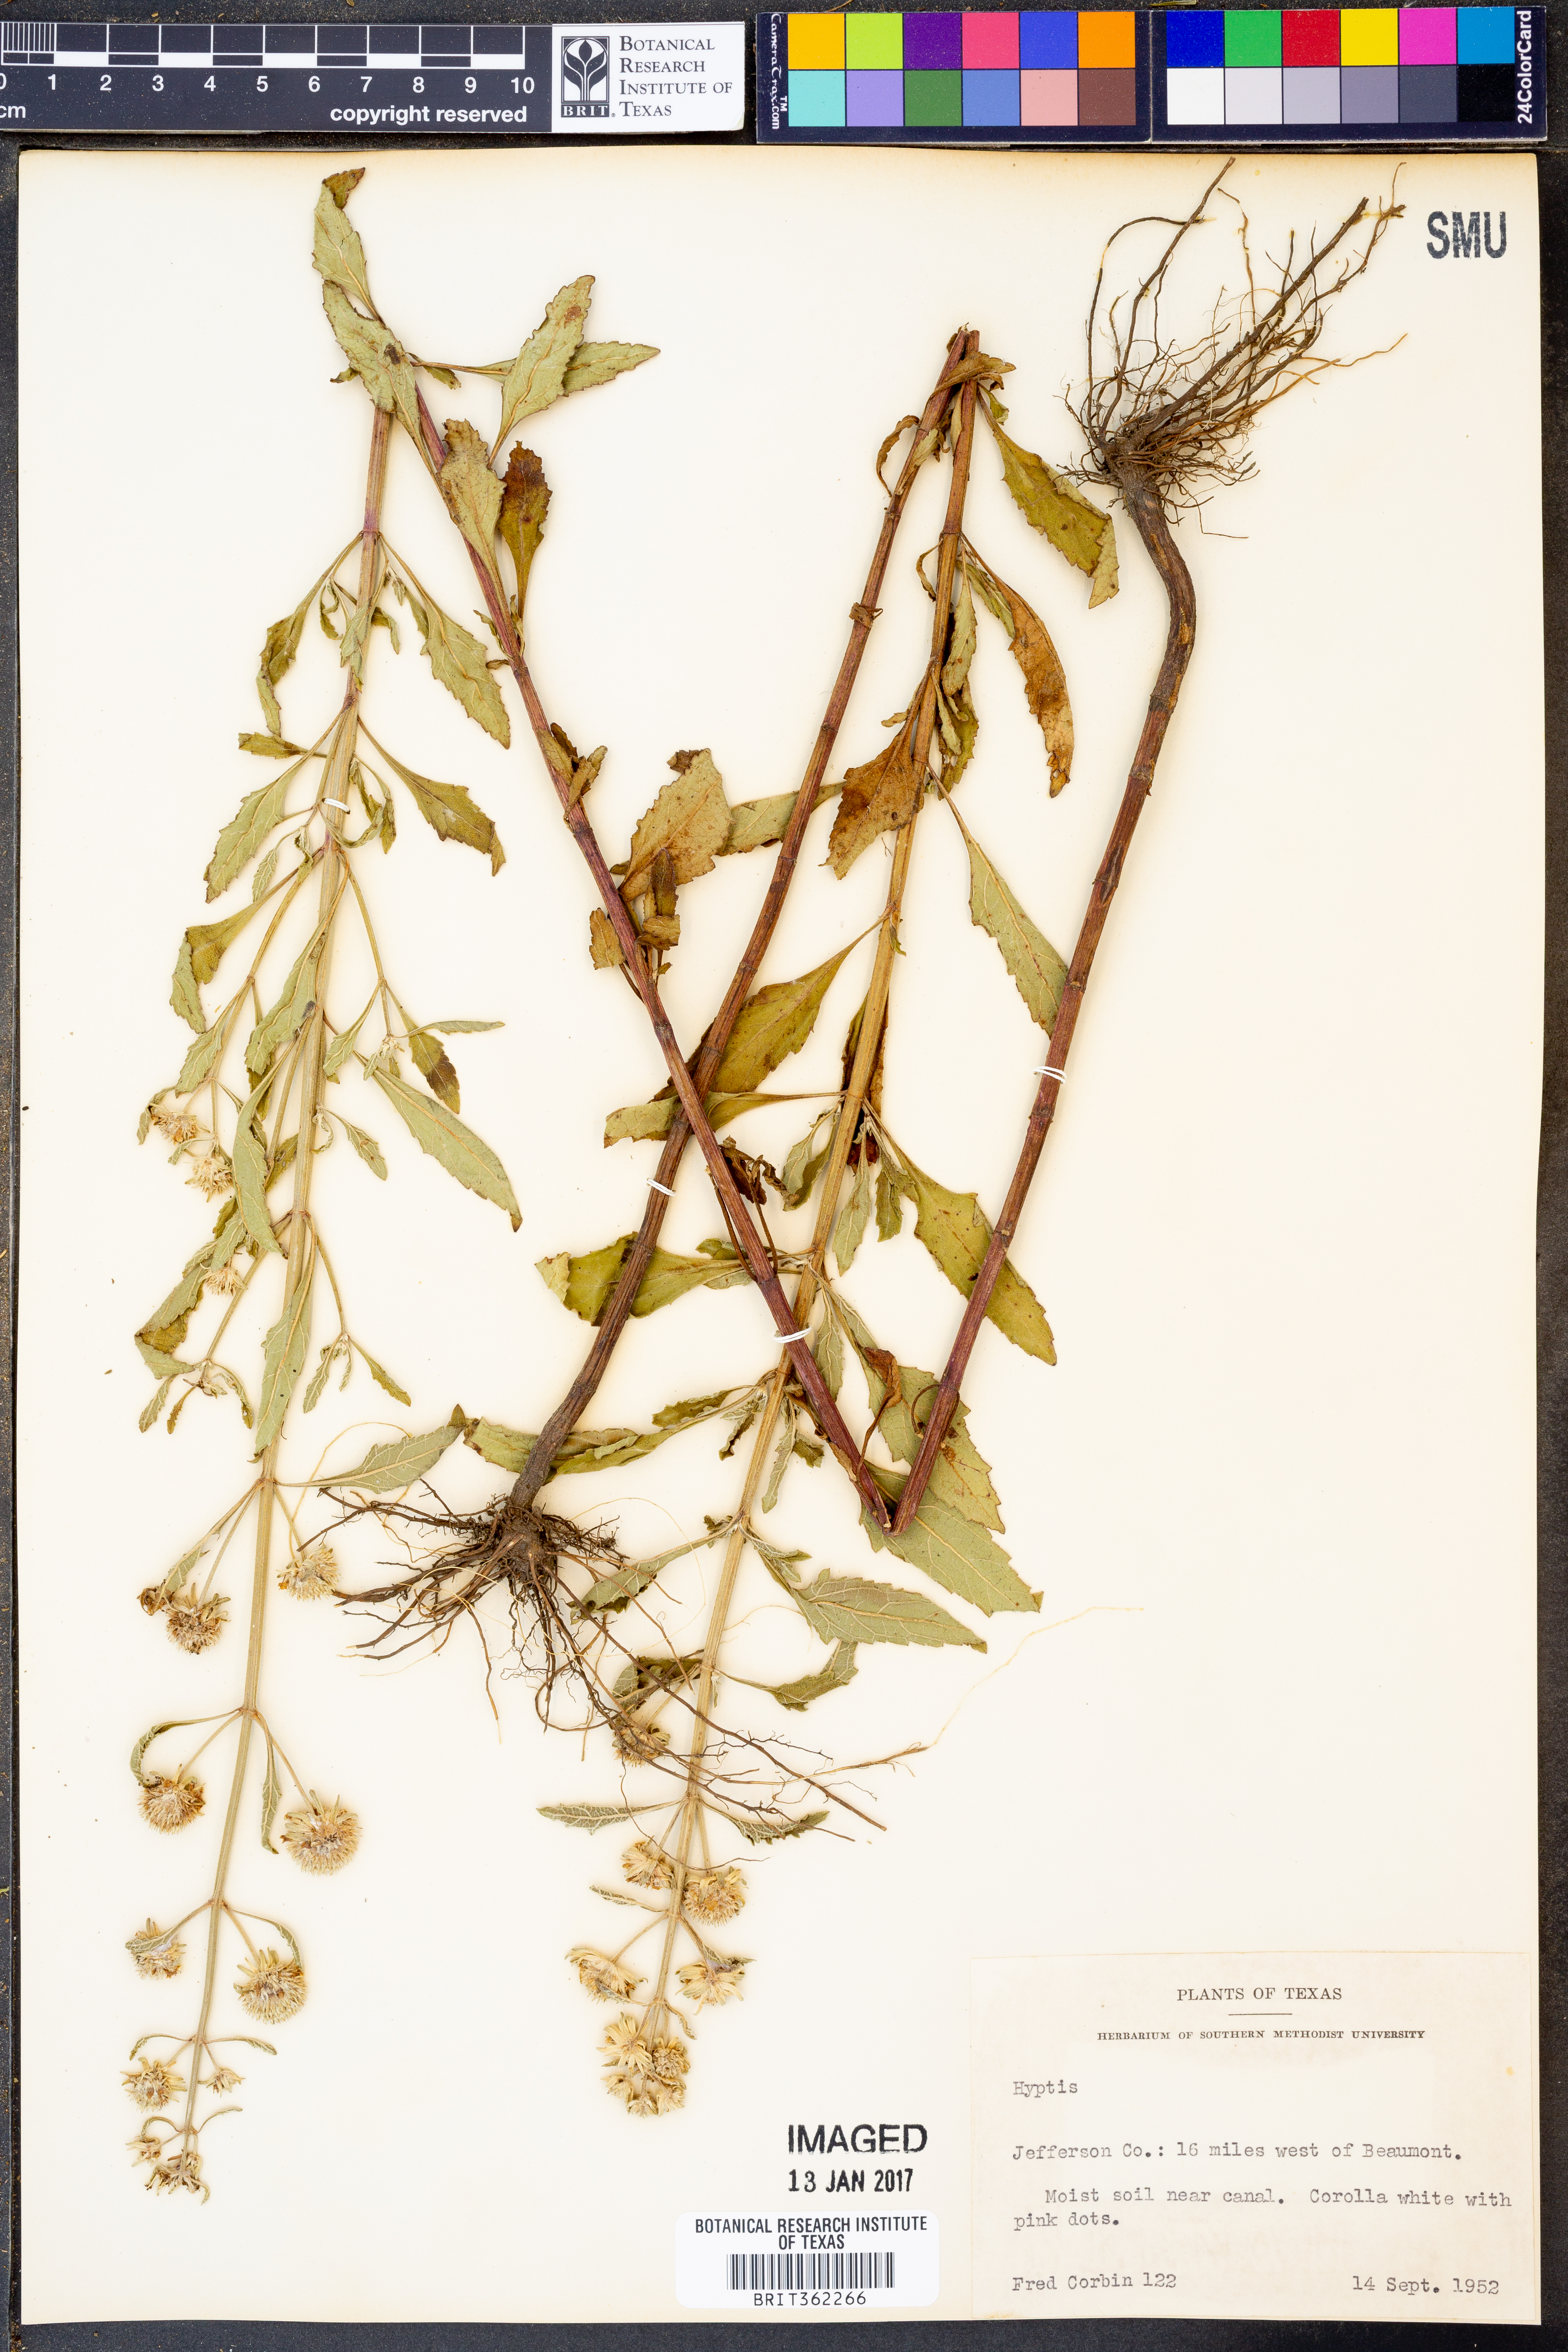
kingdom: Plantae
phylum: Tracheophyta
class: Magnoliopsida
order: Lamiales
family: Lamiaceae
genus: Hyptis
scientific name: Hyptis
